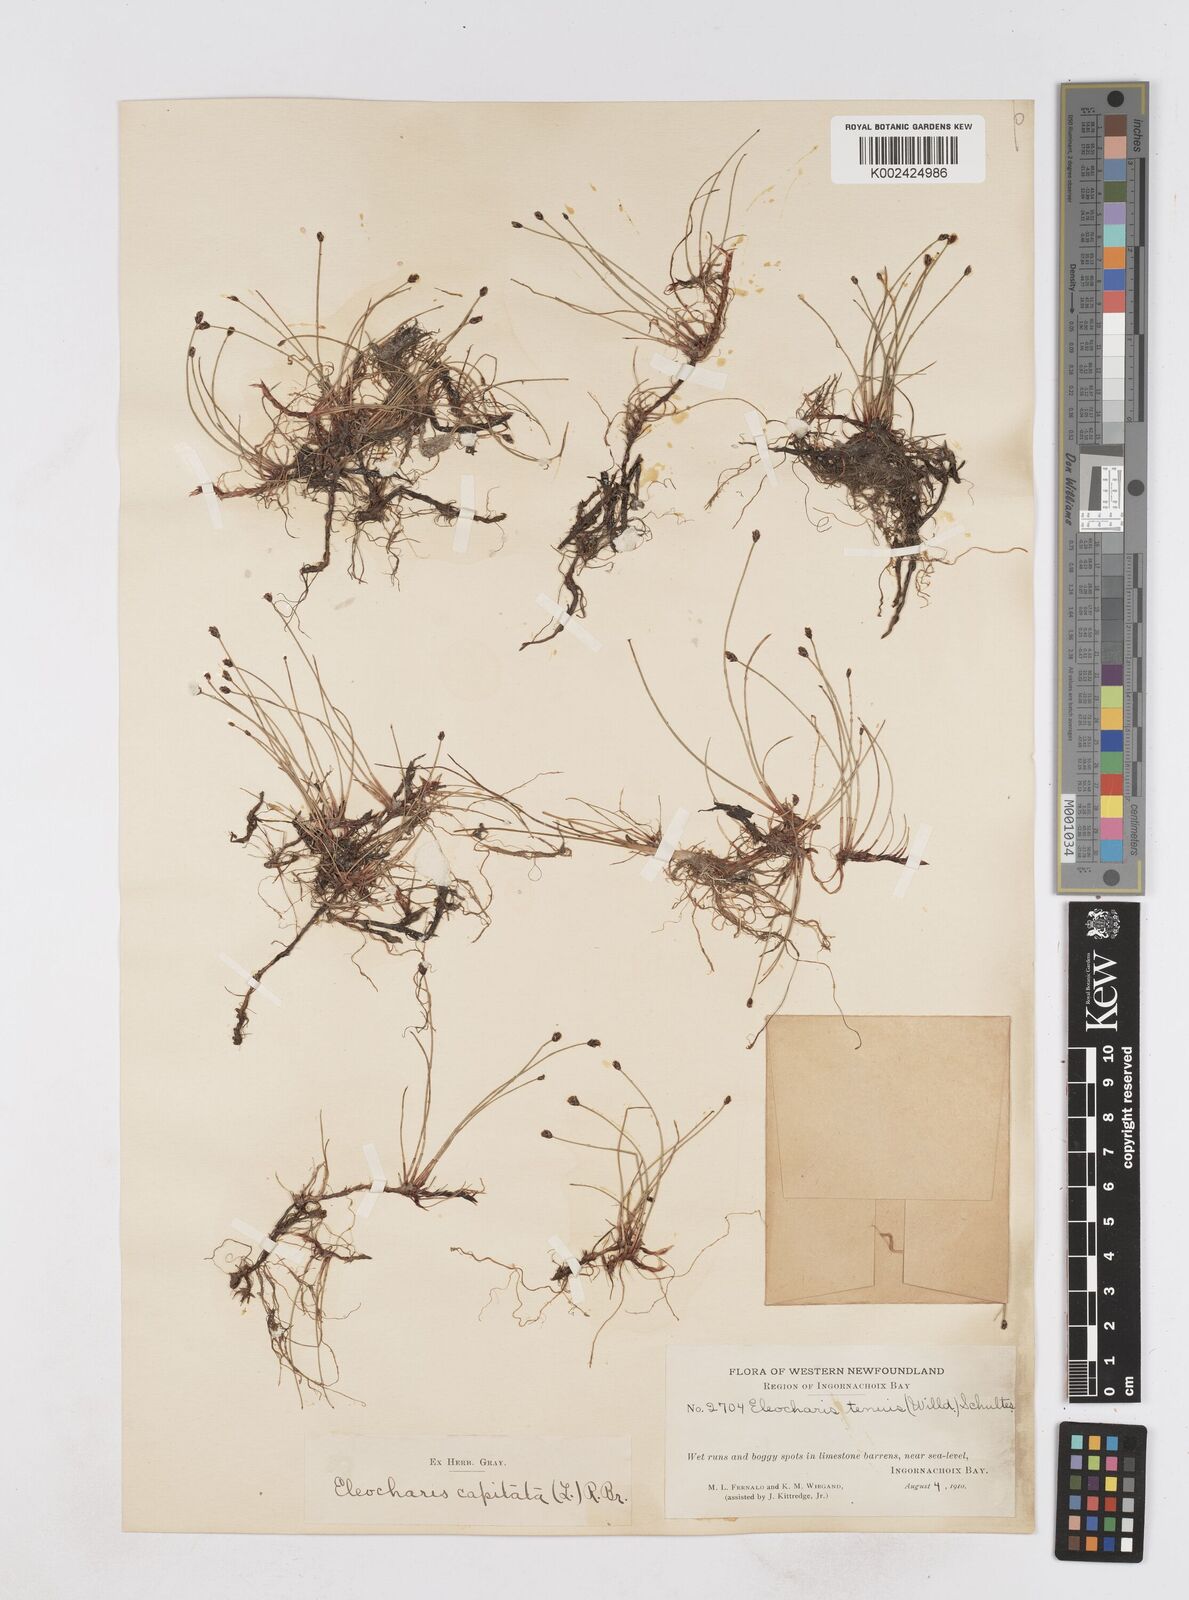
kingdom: Plantae
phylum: Tracheophyta
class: Liliopsida
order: Poales
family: Cyperaceae
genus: Eleocharis
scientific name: Eleocharis geniculata
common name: Canada spikesedge
